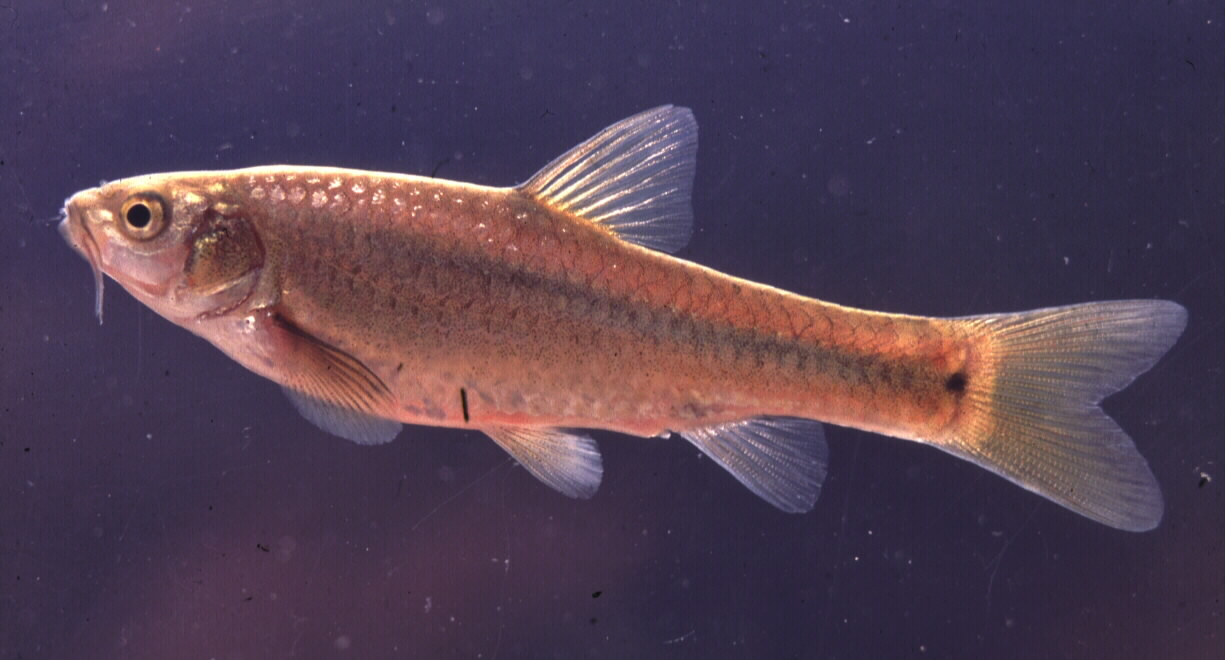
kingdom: Animalia
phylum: Chordata
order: Cypriniformes
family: Cyprinidae
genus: Enteromius
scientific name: Enteromius breviceps
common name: Shorthead barb
